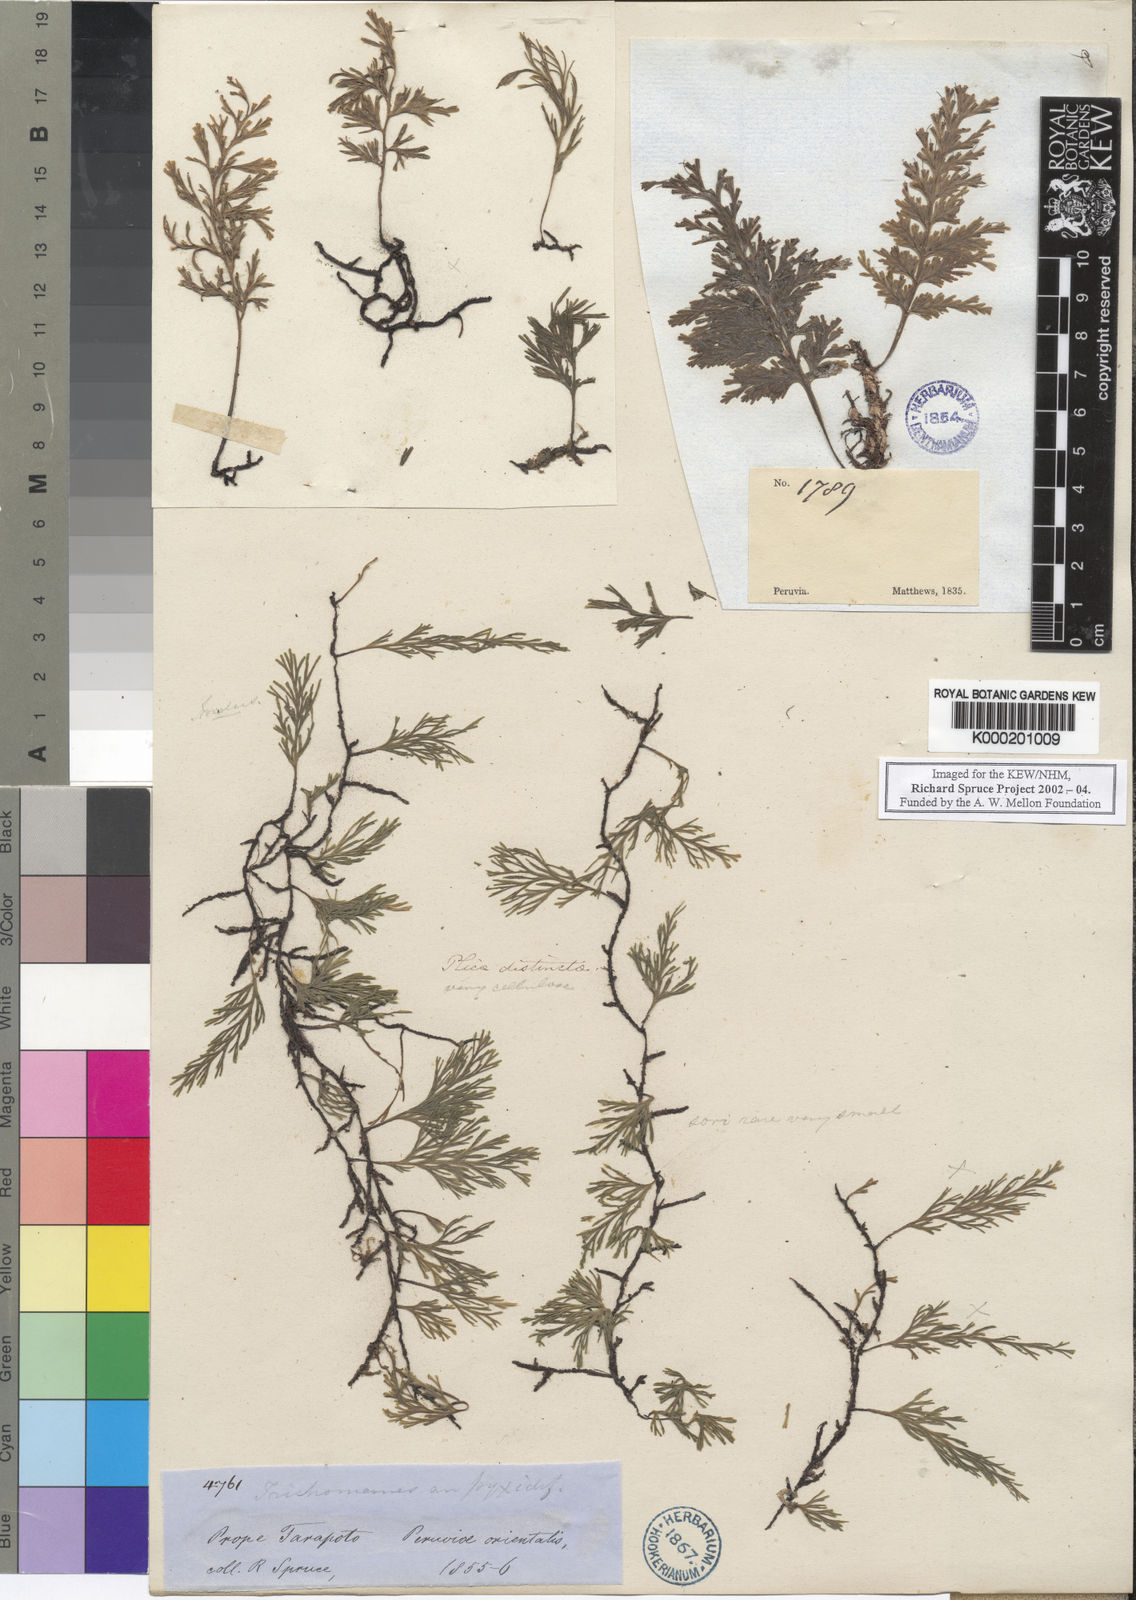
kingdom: Plantae
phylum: Tracheophyta
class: Polypodiopsida
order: Hymenophyllales
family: Hymenophyllaceae
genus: Trichomanes
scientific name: Trichomanes
